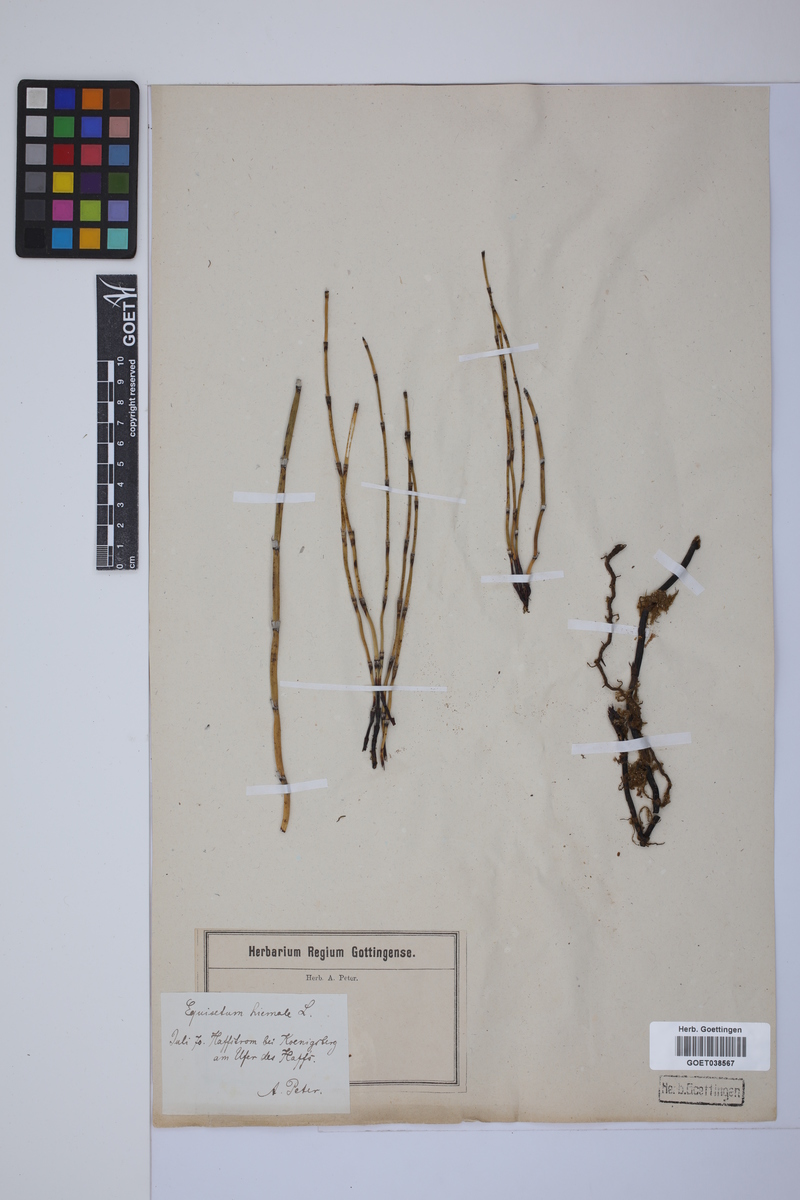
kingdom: Plantae
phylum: Tracheophyta
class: Polypodiopsida
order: Equisetales
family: Equisetaceae
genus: Equisetum
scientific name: Equisetum hyemale
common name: Rough horsetail
